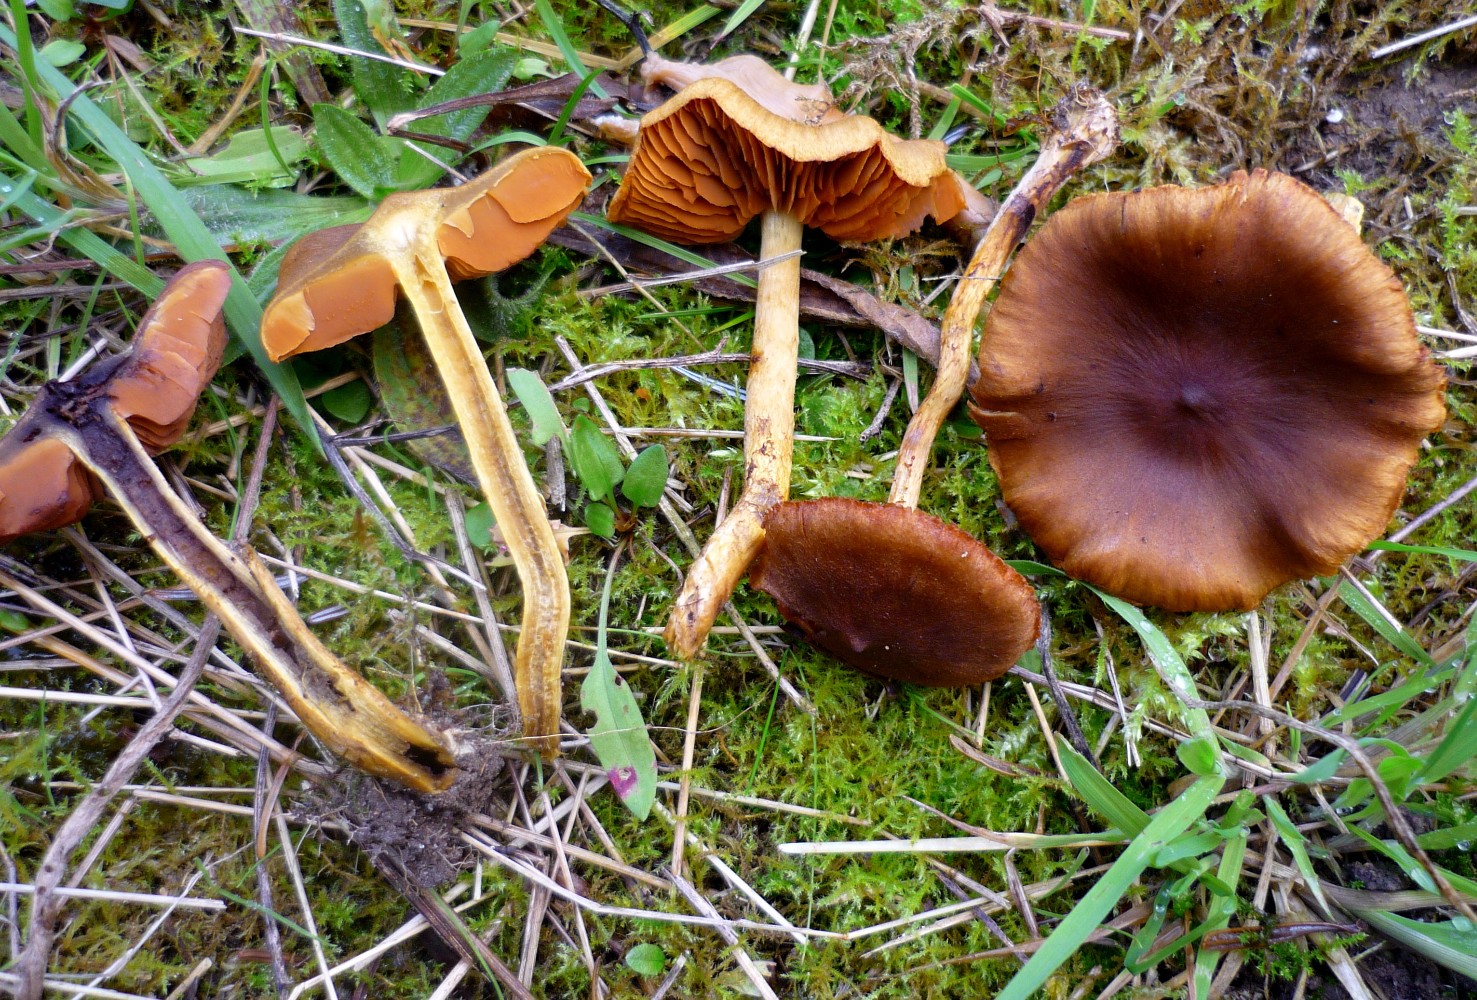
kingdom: Fungi
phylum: Basidiomycota
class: Agaricomycetes
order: Agaricales
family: Cortinariaceae
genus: Cortinarius
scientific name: Cortinarius cinnamomeus
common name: kanel-slørhat
